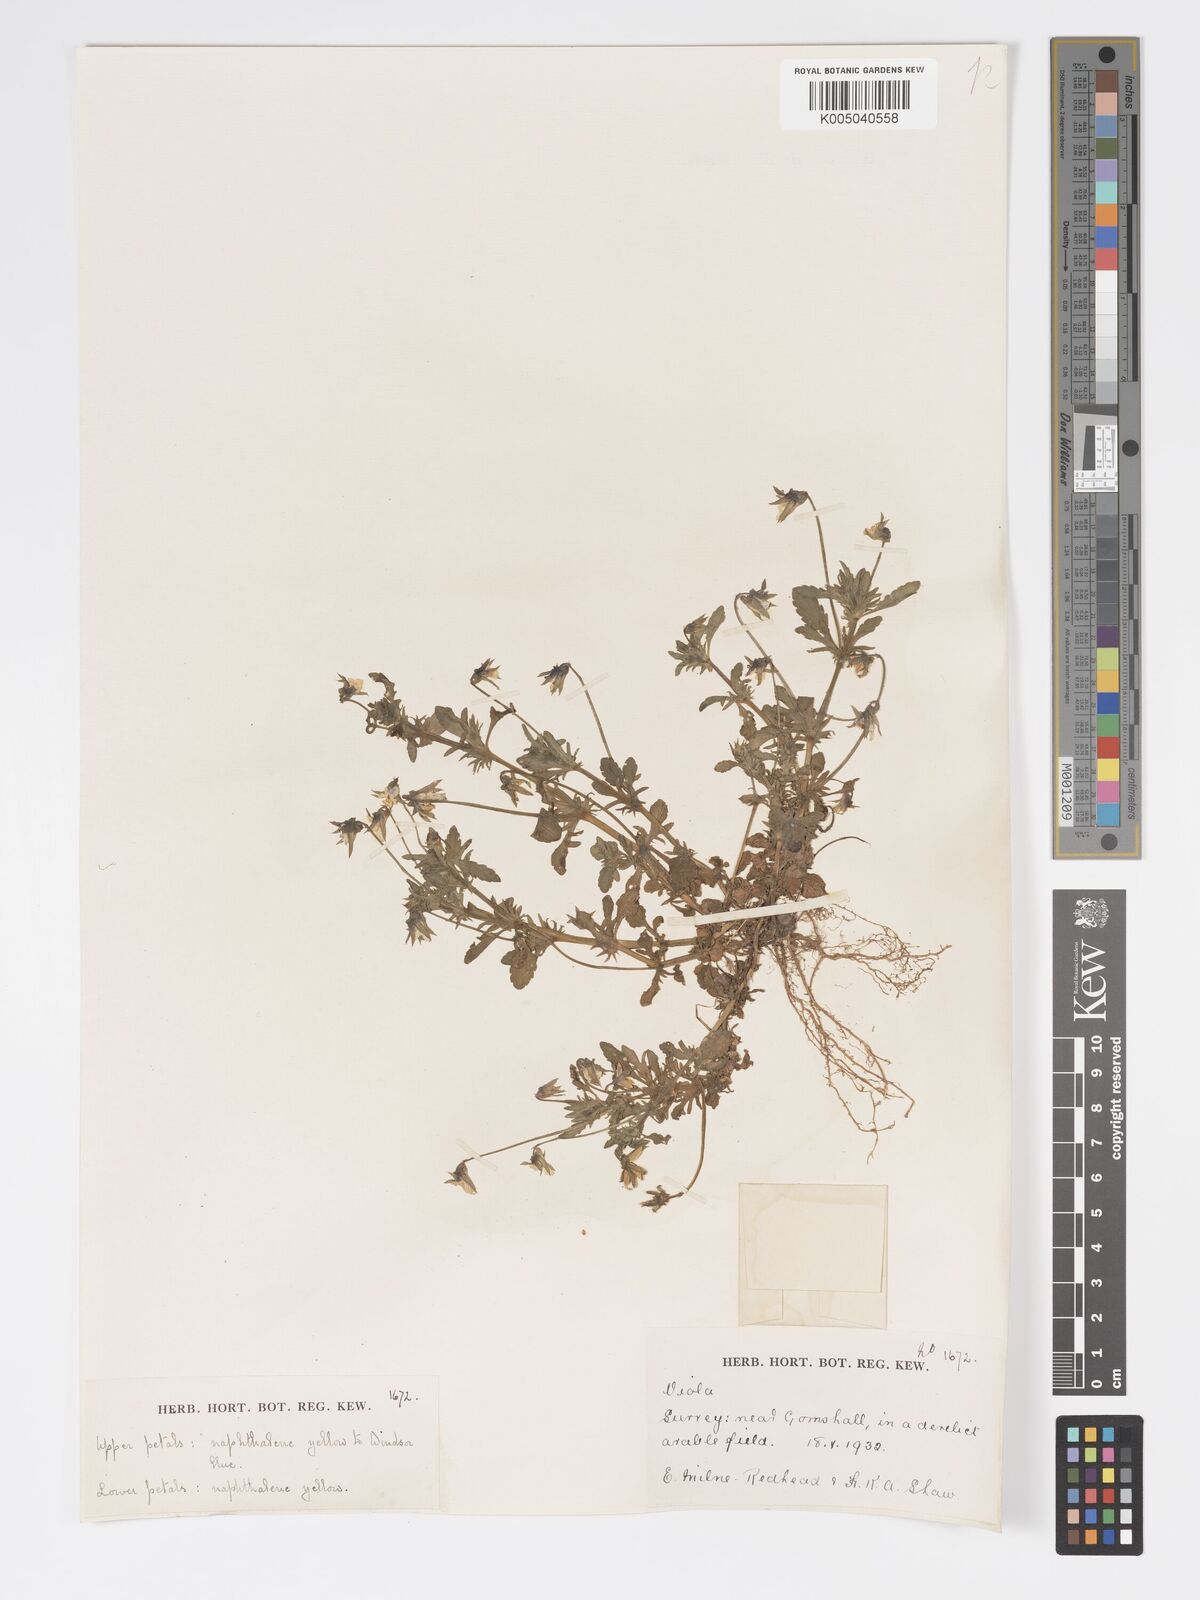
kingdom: Plantae
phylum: Tracheophyta
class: Magnoliopsida
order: Malpighiales
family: Violaceae
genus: Viola
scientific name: Viola
